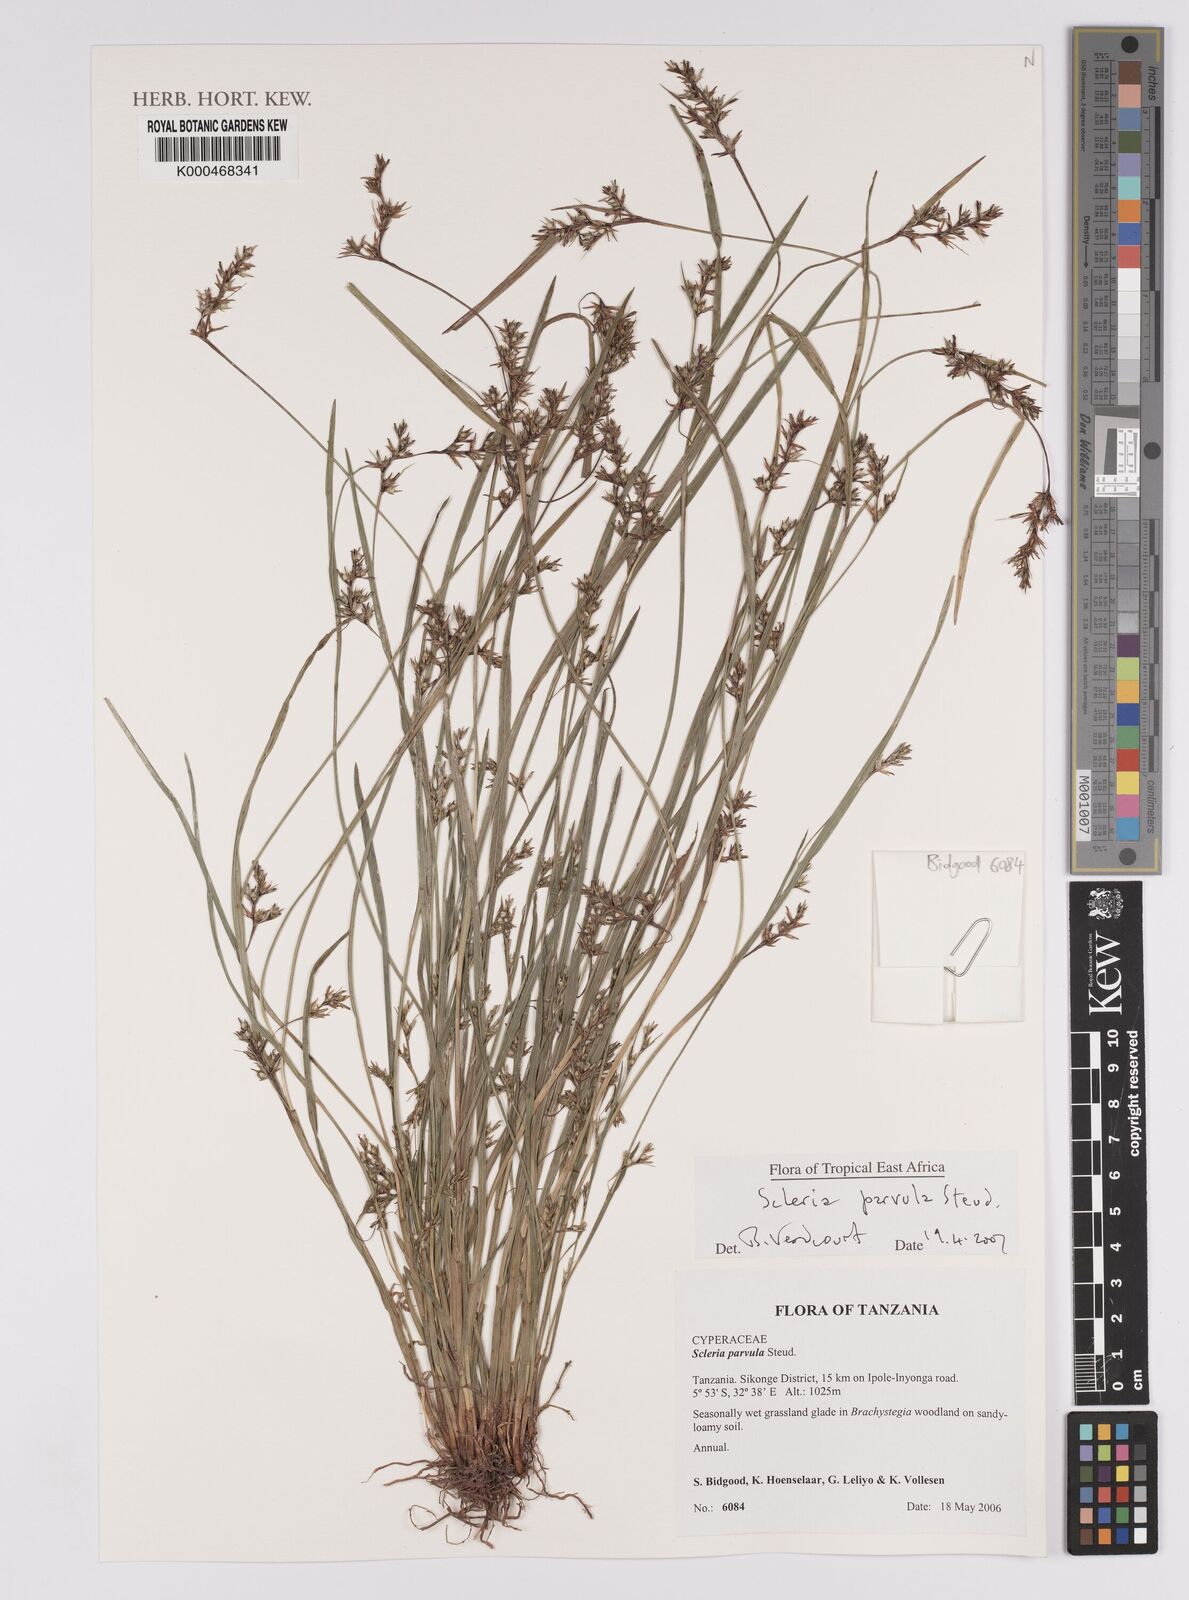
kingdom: Plantae
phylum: Tracheophyta
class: Liliopsida
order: Poales
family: Cyperaceae
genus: Scleria
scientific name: Scleria parvula
